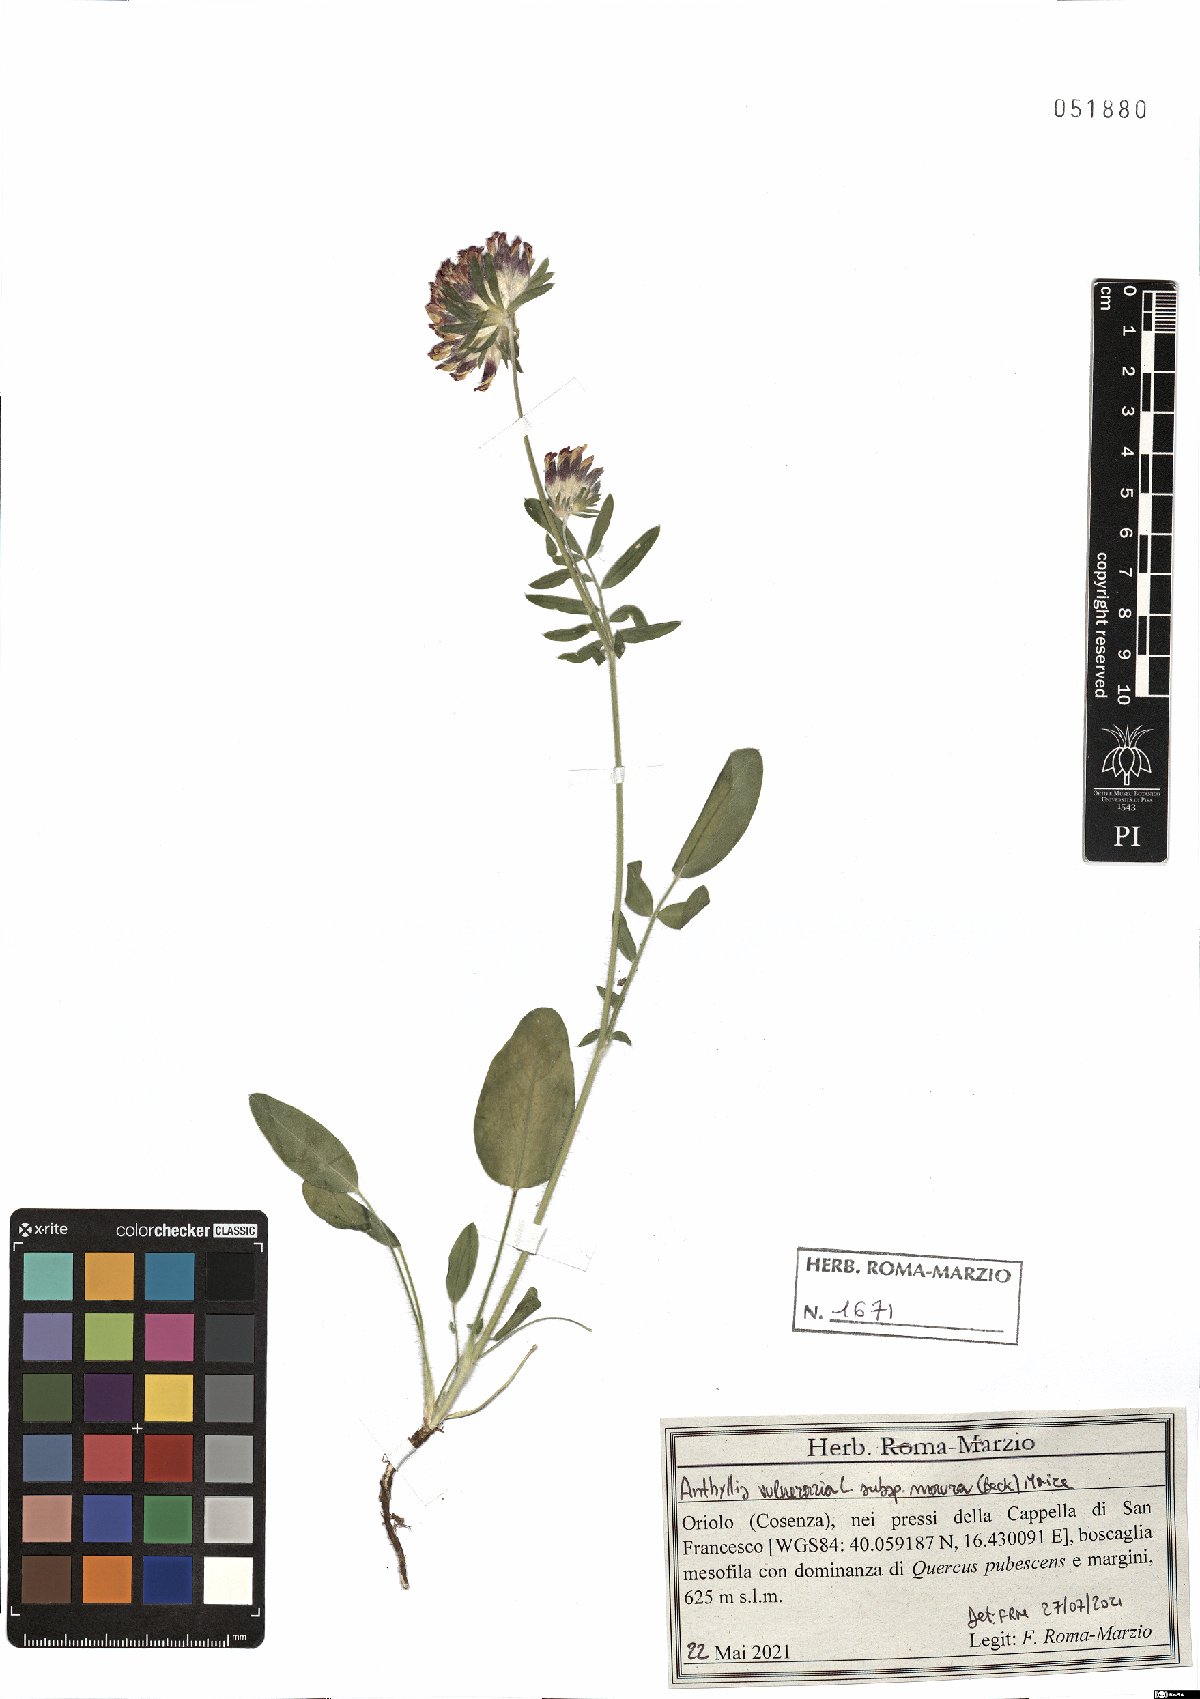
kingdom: Plantae
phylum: Tracheophyta
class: Magnoliopsida
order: Fabales
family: Fabaceae
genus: Anthyllis
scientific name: Anthyllis vulneraria
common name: Kidney vetch
